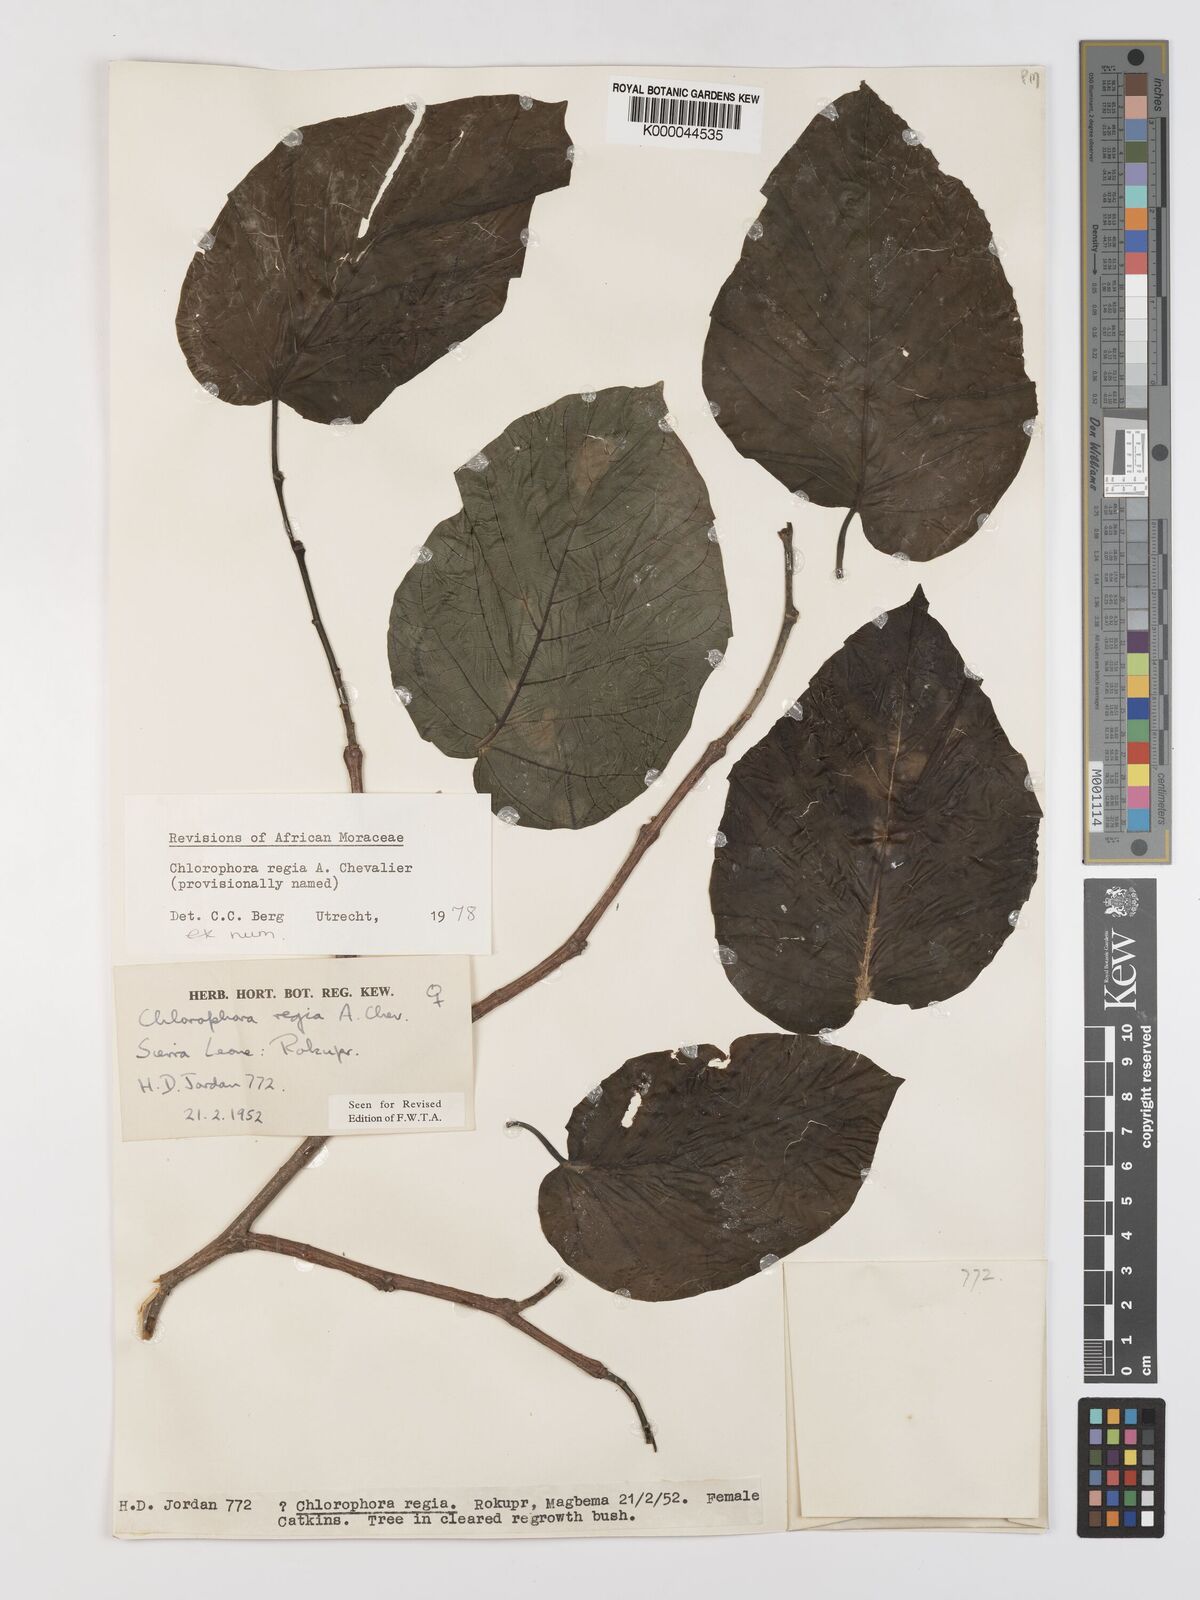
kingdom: Plantae
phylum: Tracheophyta
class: Magnoliopsida
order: Rosales
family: Moraceae
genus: Milicia
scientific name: Milicia regia
